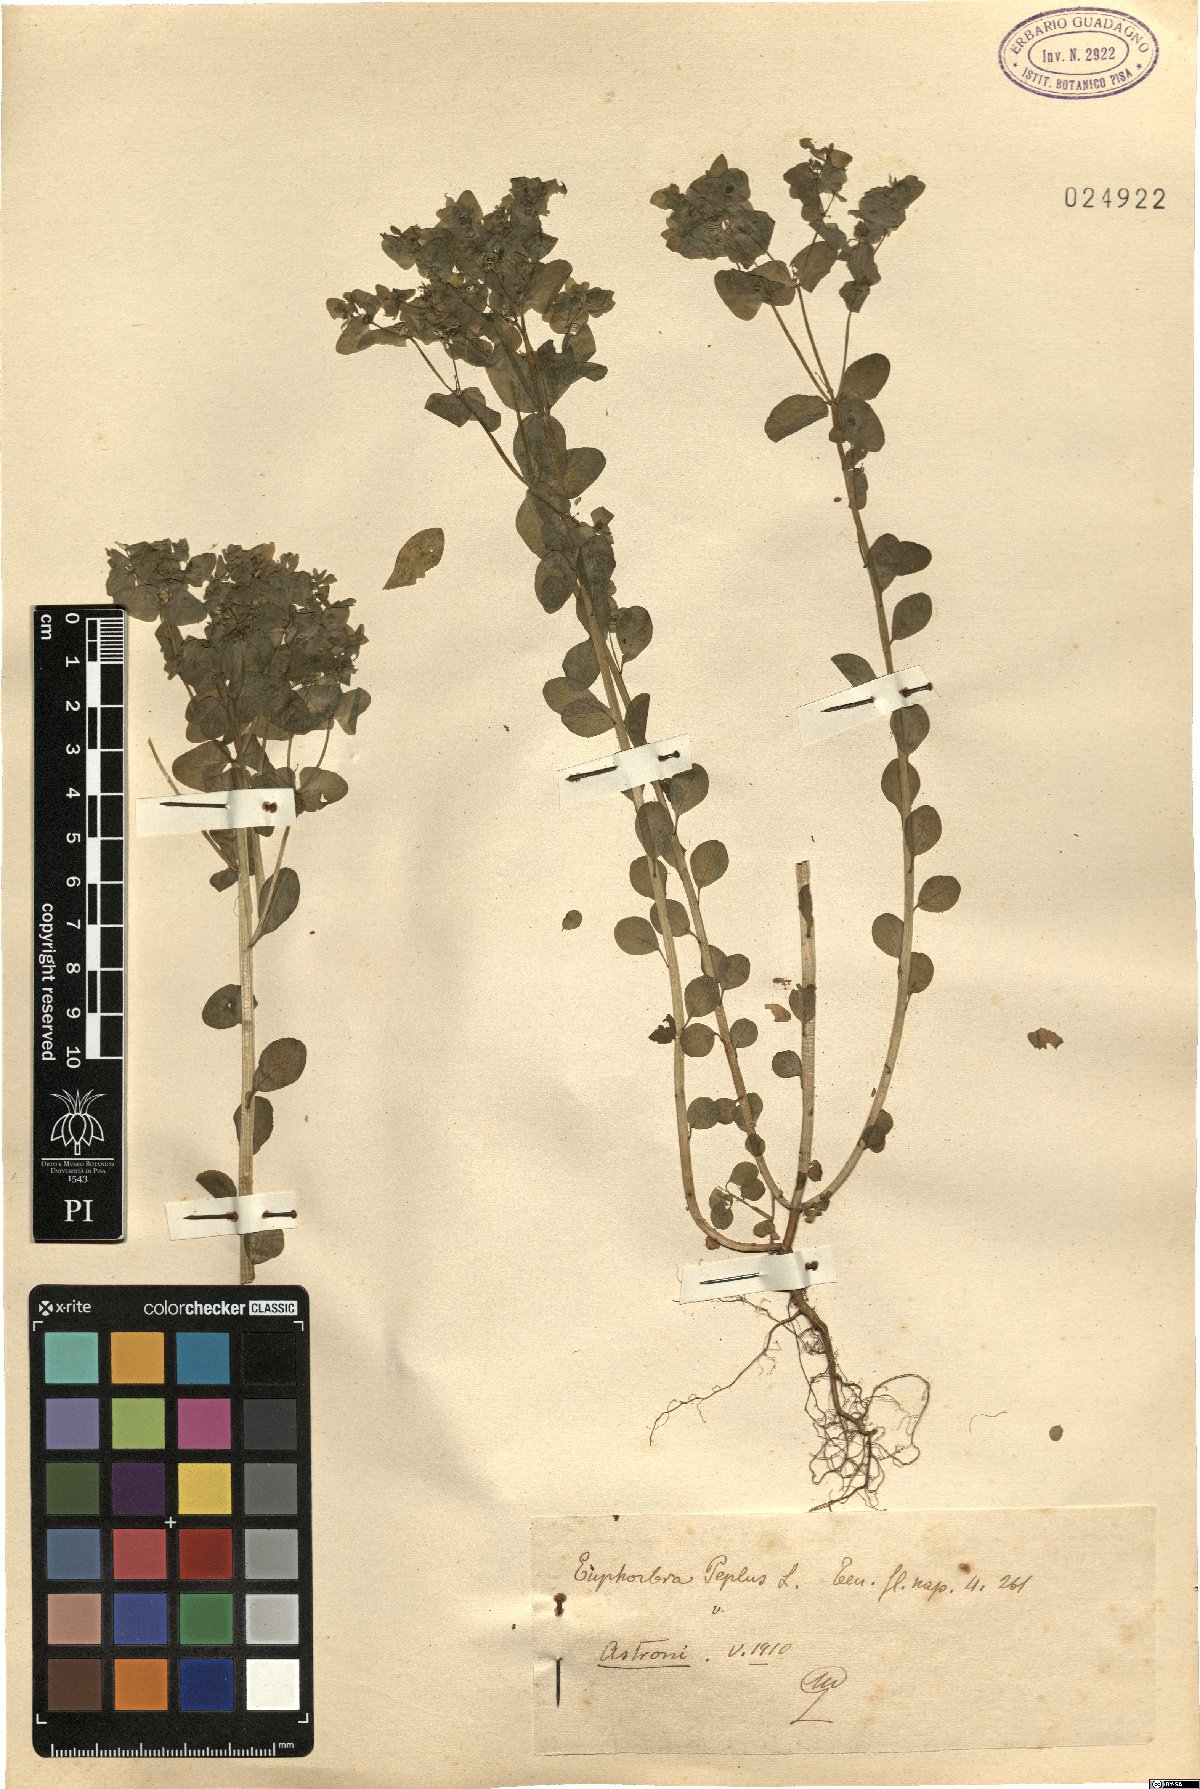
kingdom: Plantae
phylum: Tracheophyta
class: Magnoliopsida
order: Malpighiales
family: Euphorbiaceae
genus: Euphorbia
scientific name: Euphorbia peplus
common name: Petty spurge
